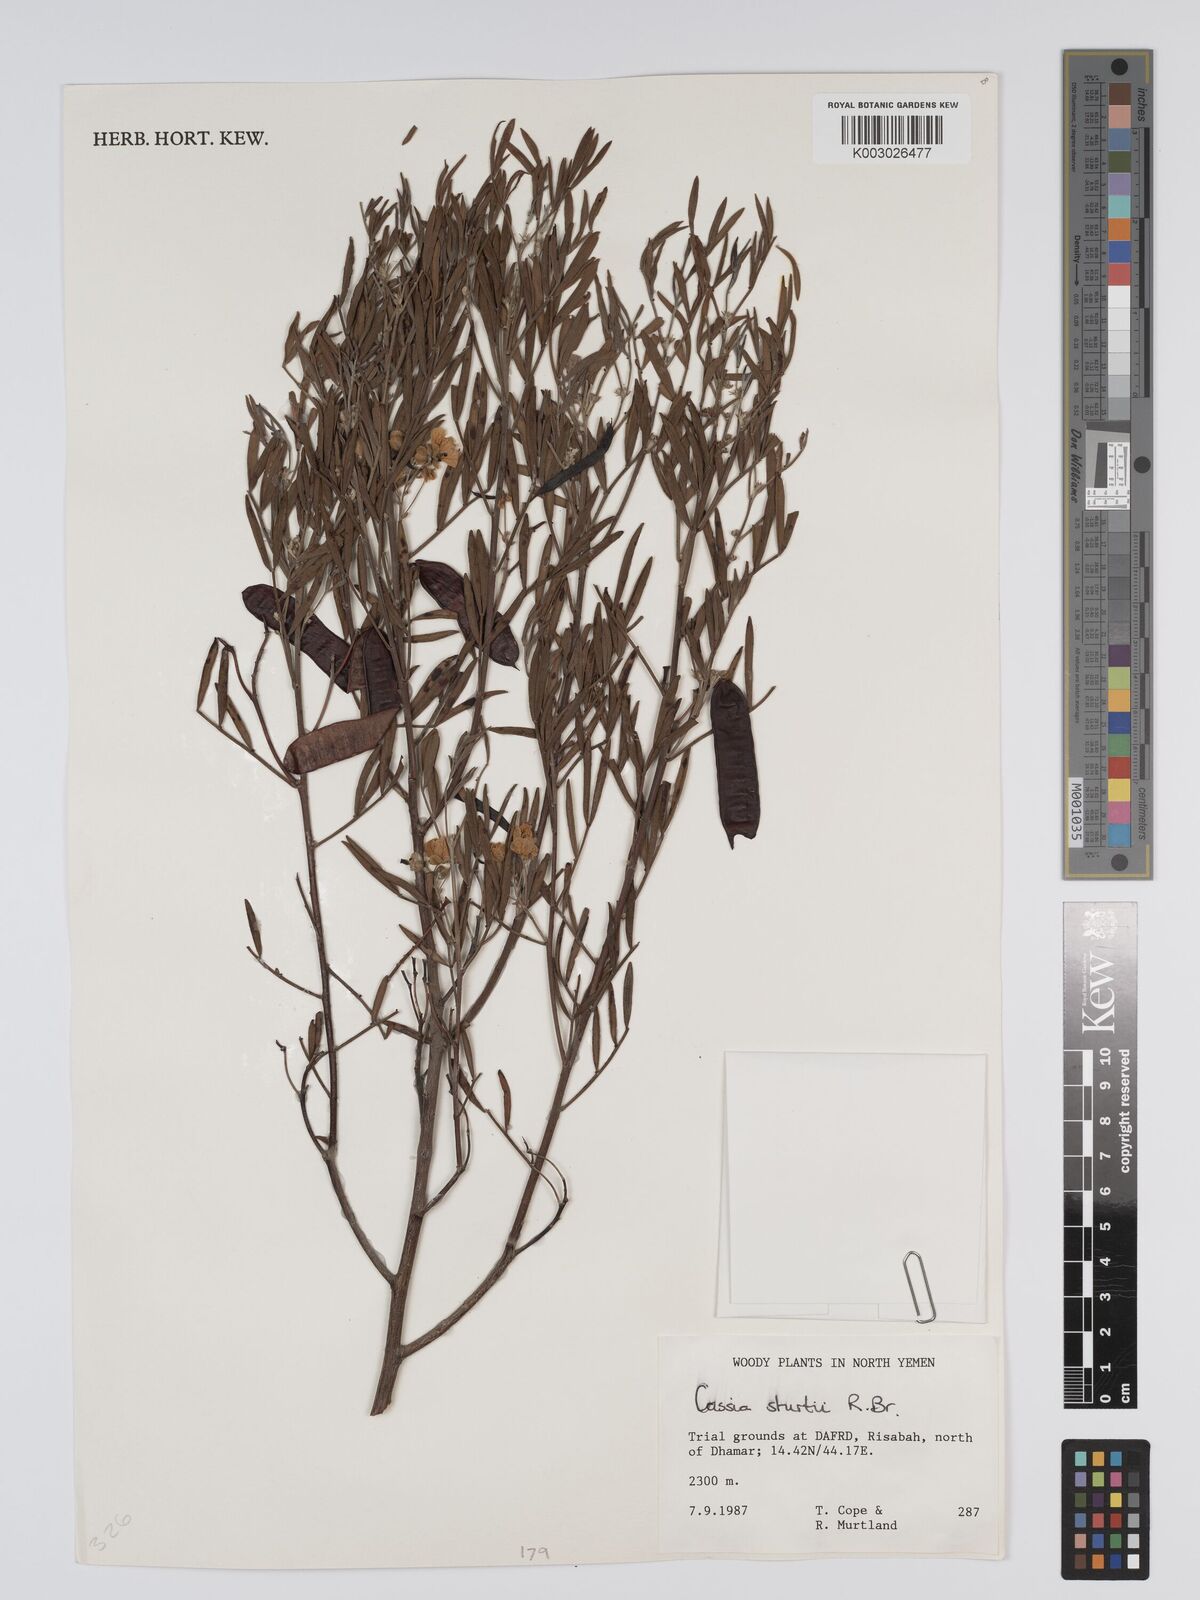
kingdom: Plantae
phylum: Tracheophyta
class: Magnoliopsida
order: Fabales
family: Fabaceae
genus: Senna
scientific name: Senna artemisioides
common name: Burnt-leaved acacia
